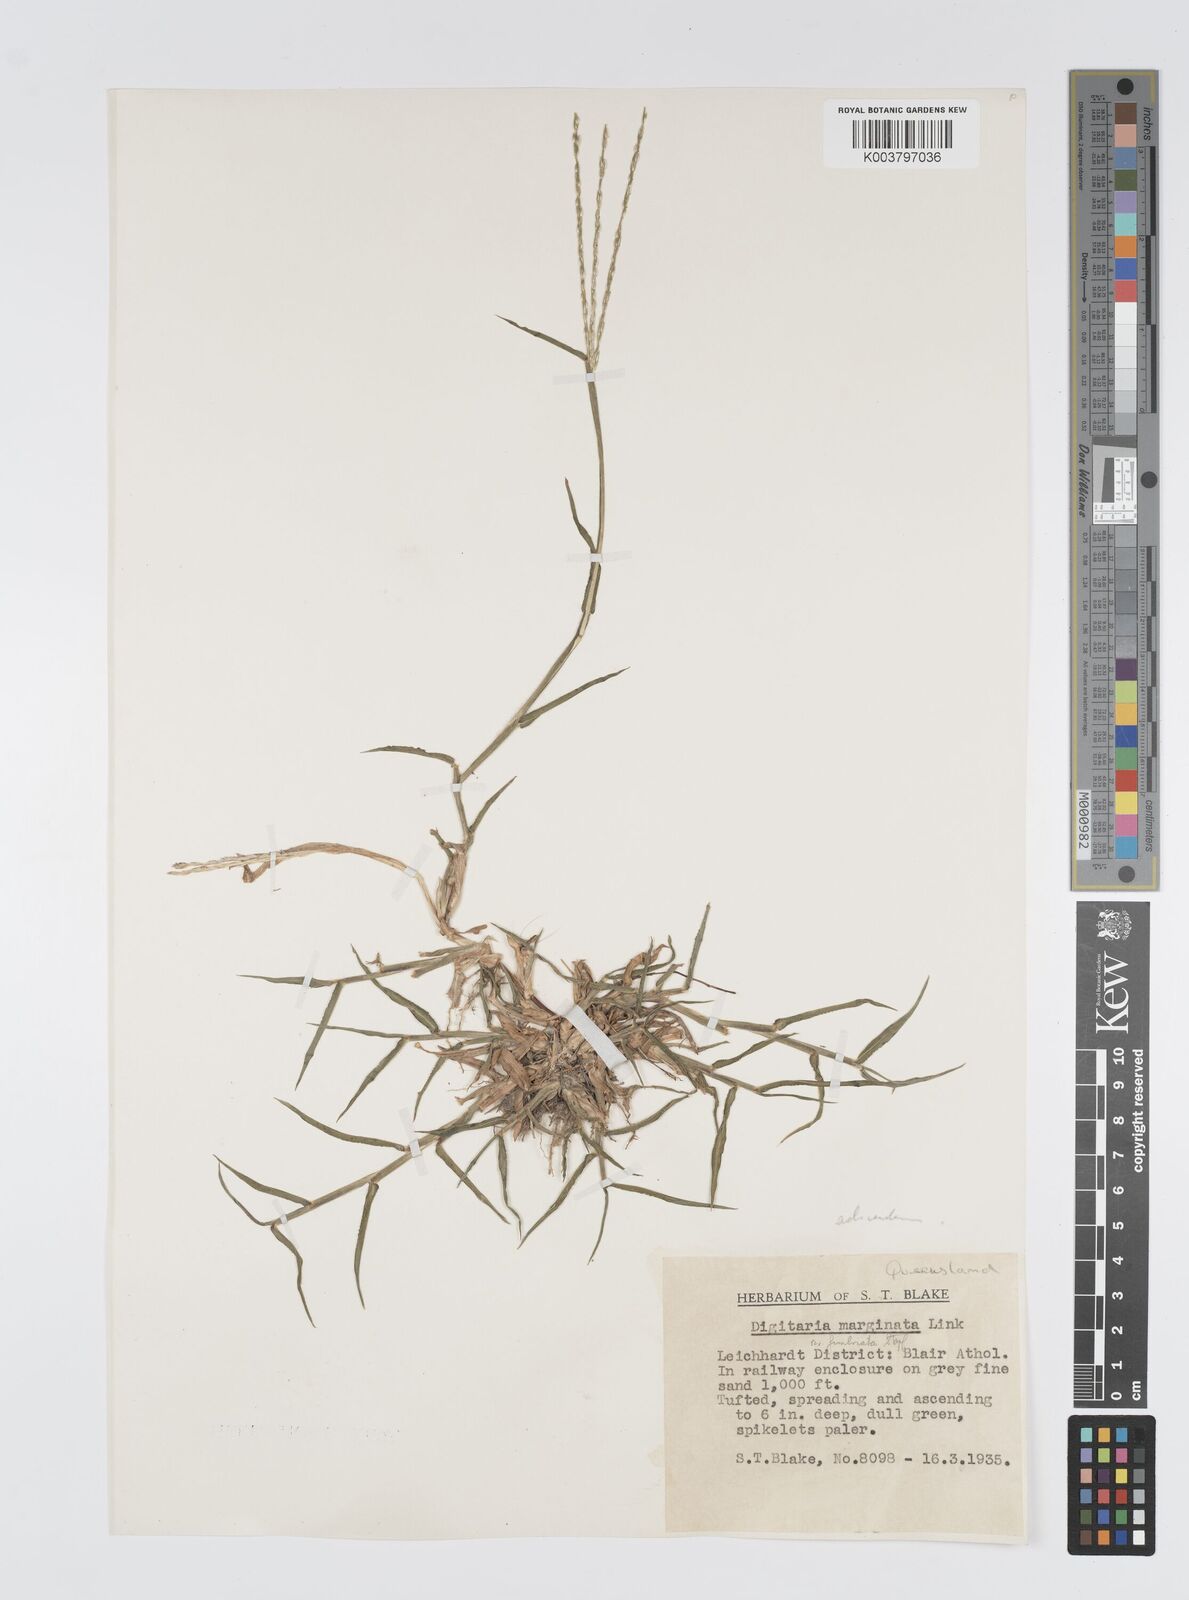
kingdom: Plantae
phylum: Tracheophyta
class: Liliopsida
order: Poales
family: Poaceae
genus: Digitaria
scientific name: Digitaria ciliaris
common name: Tropical finger-grass
